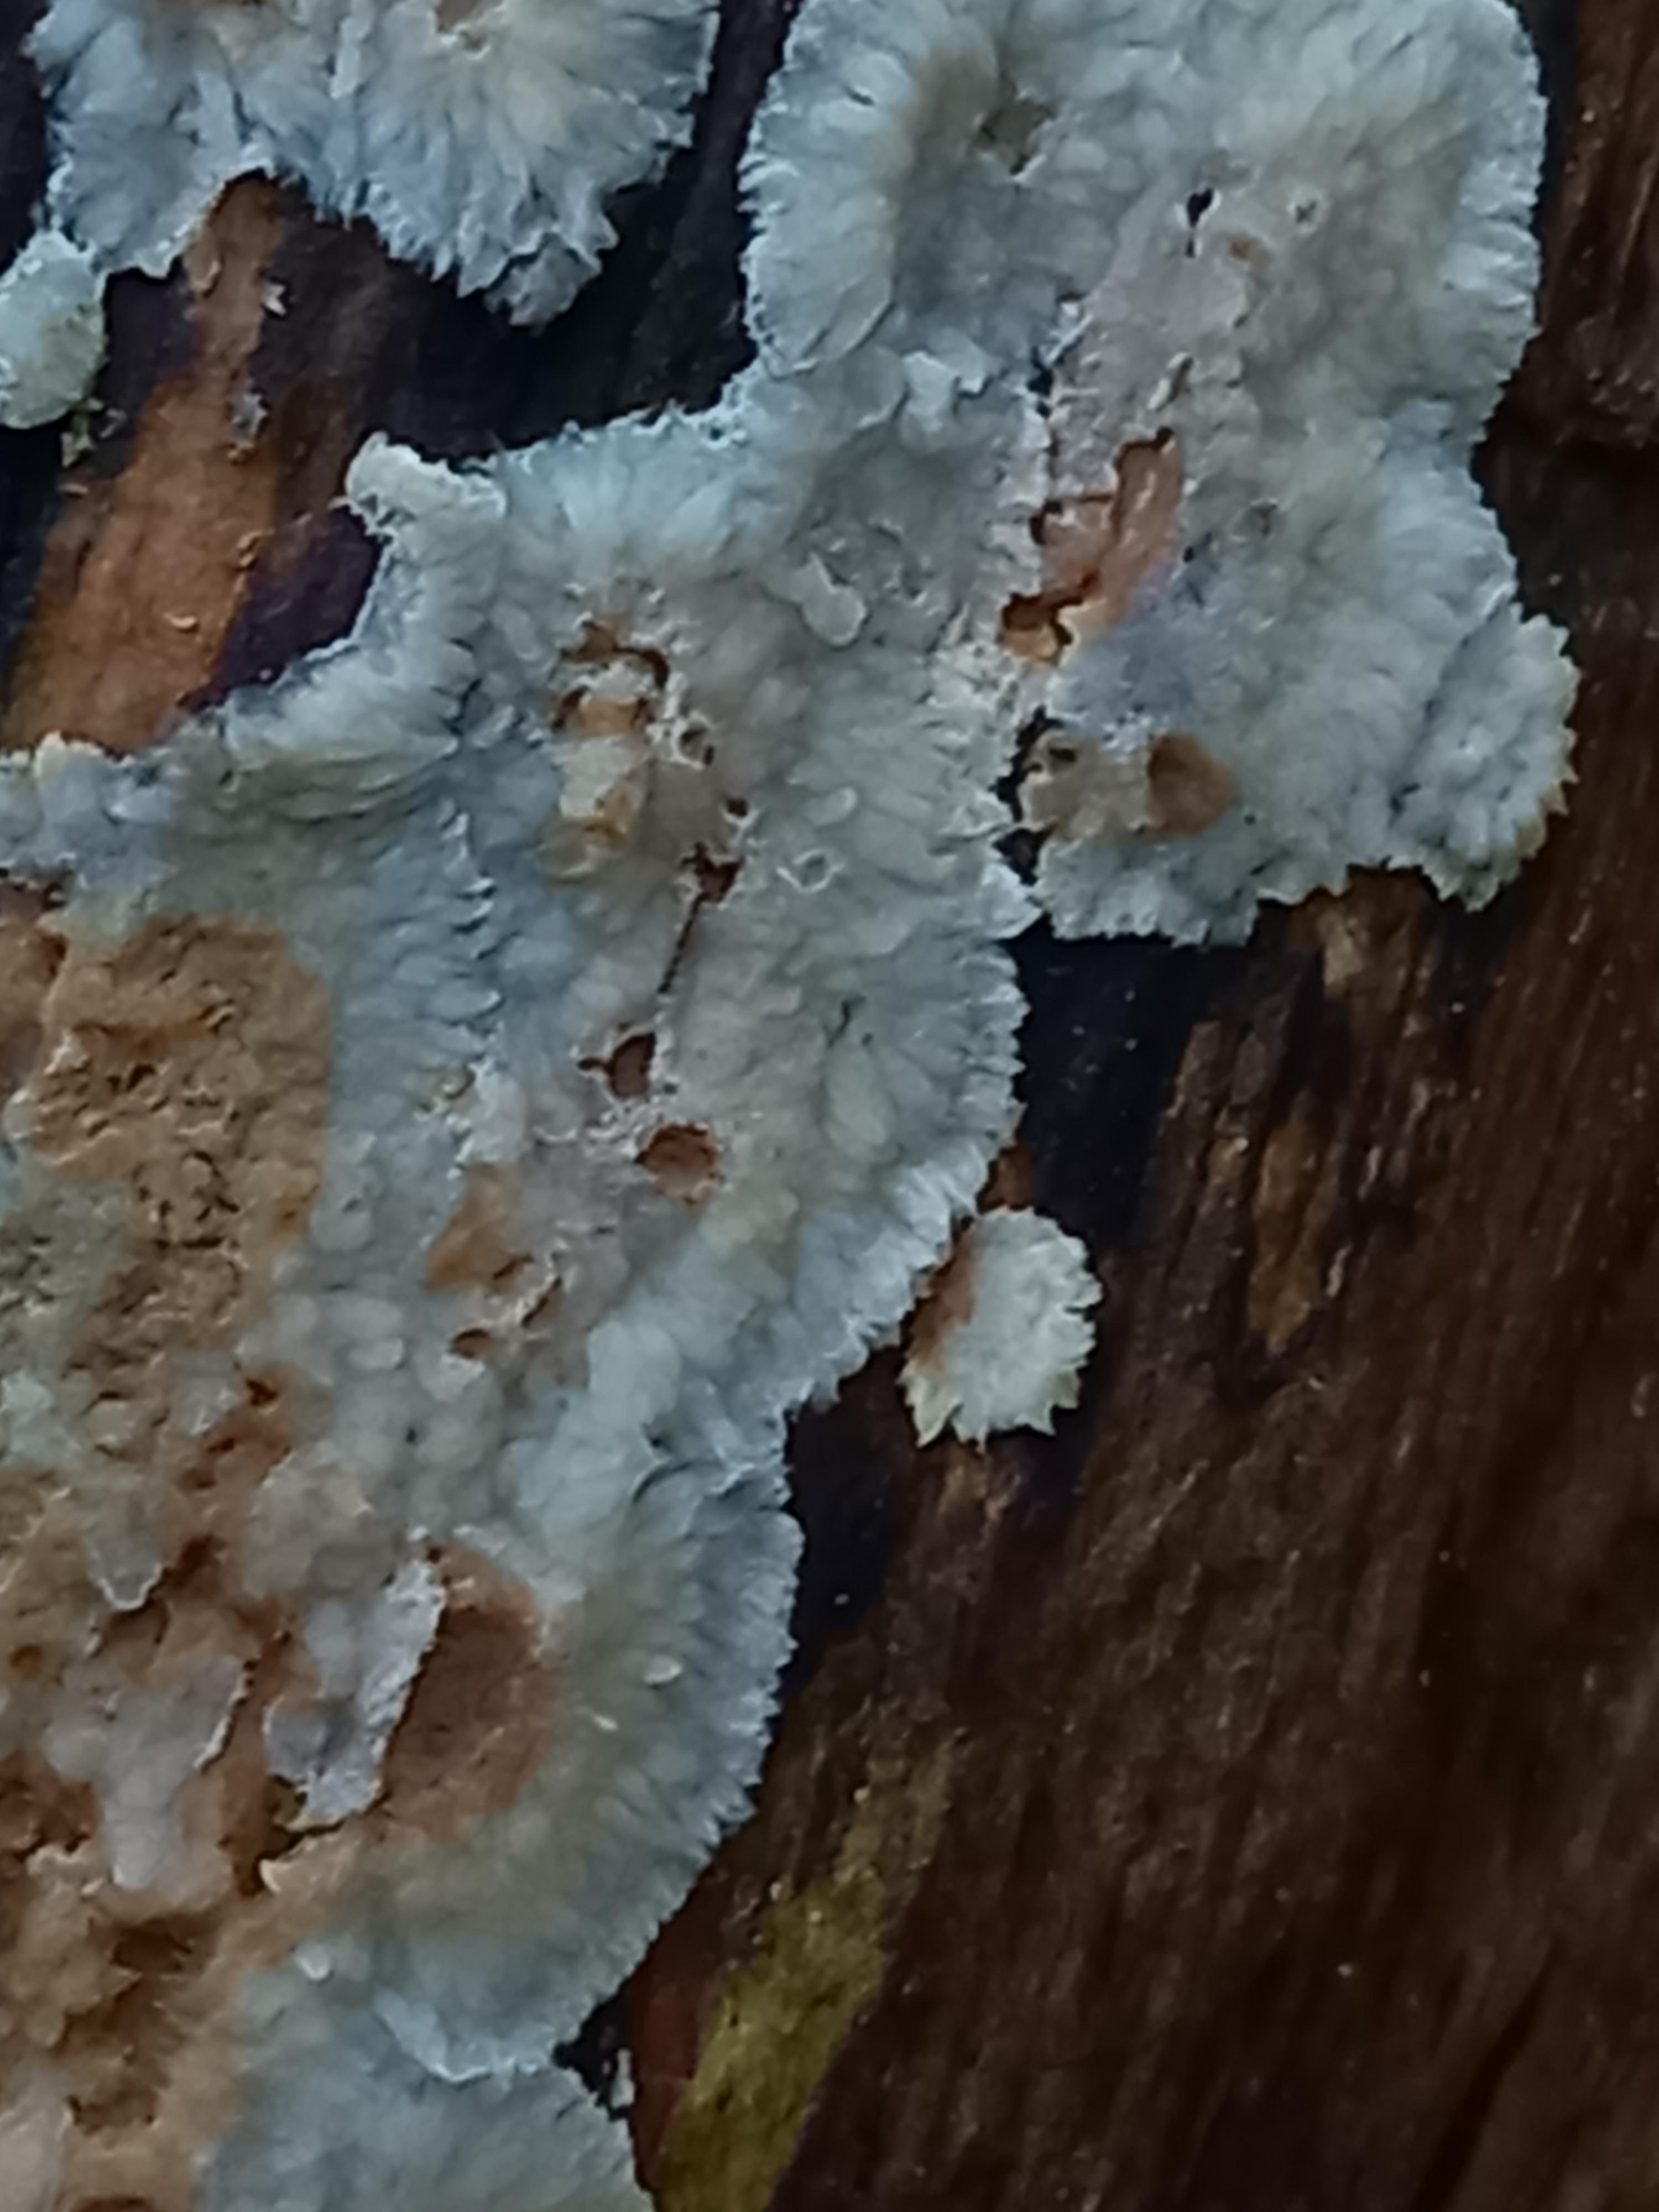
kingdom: Fungi
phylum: Basidiomycota
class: Agaricomycetes
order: Polyporales
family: Meruliaceae
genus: Phlebia
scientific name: Phlebia
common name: åresvamp
